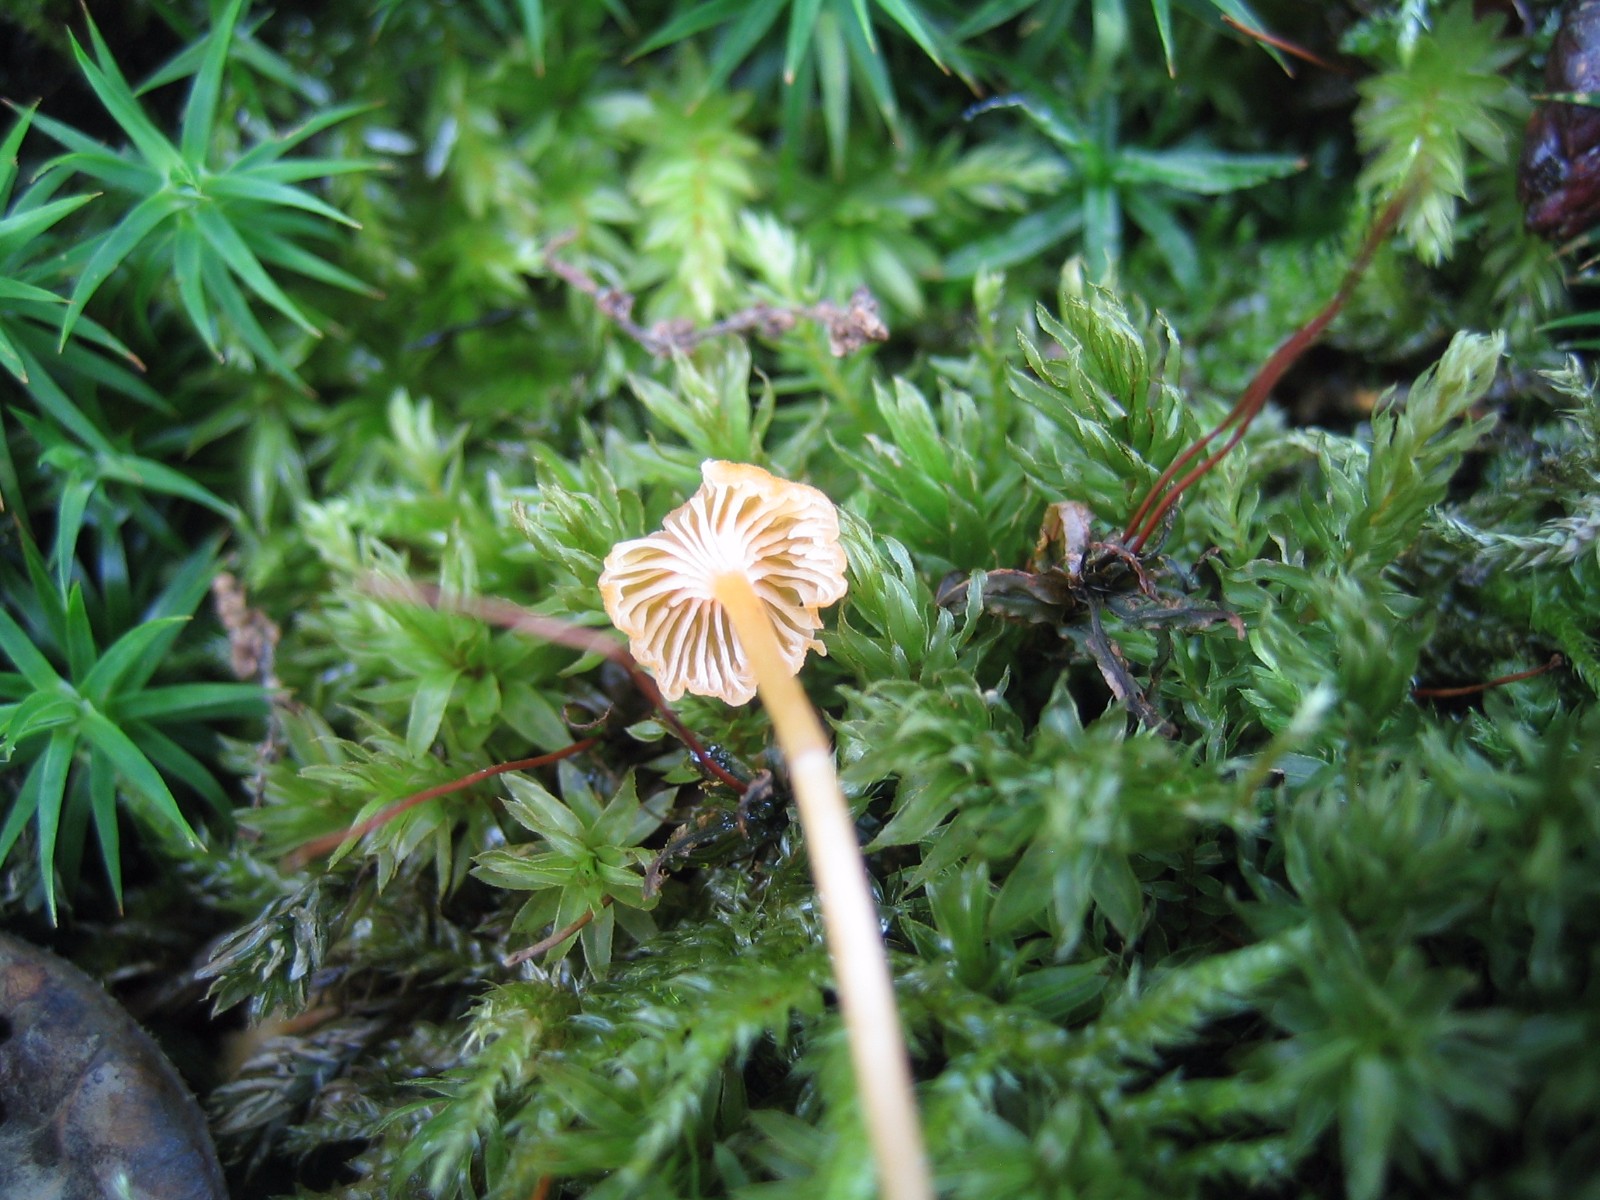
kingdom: Fungi
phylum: Basidiomycota
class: Agaricomycetes
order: Hymenochaetales
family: Rickenellaceae
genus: Rickenella
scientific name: Rickenella fibula
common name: orange mosnavlehat
